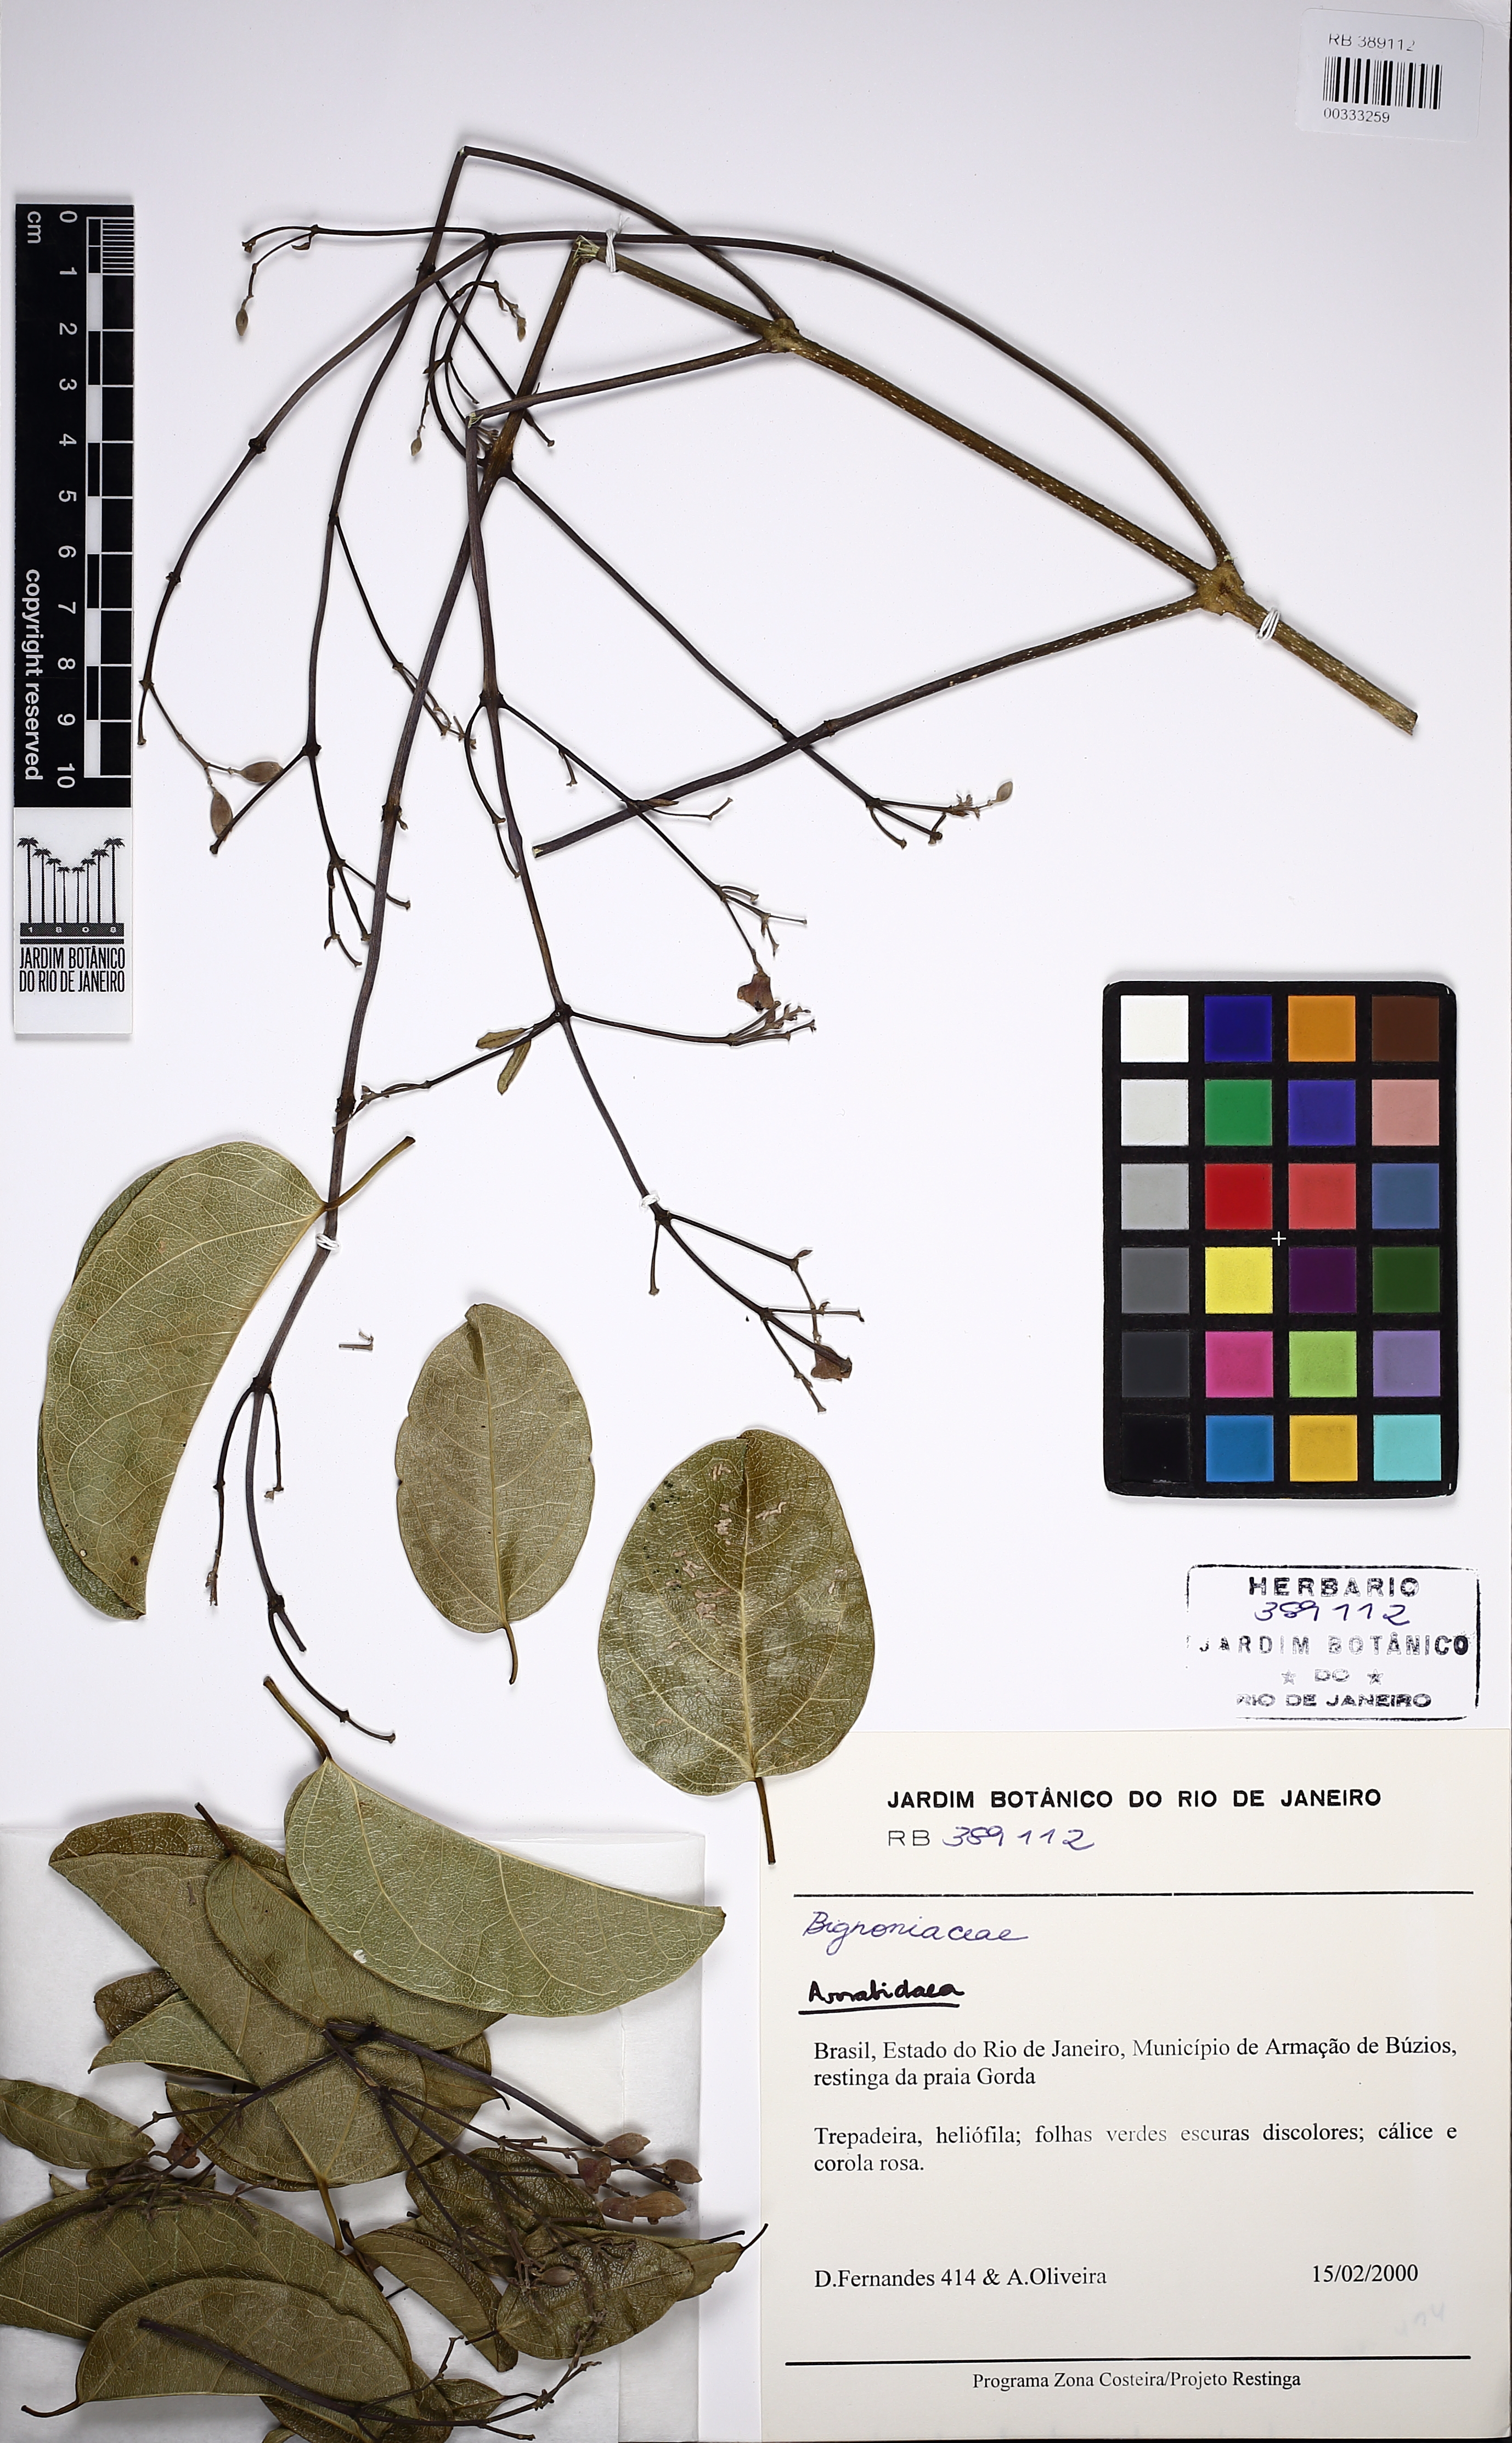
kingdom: Plantae
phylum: Tracheophyta
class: Magnoliopsida
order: Lamiales
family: Bignoniaceae
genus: Fridericia
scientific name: Fridericia conjugata
